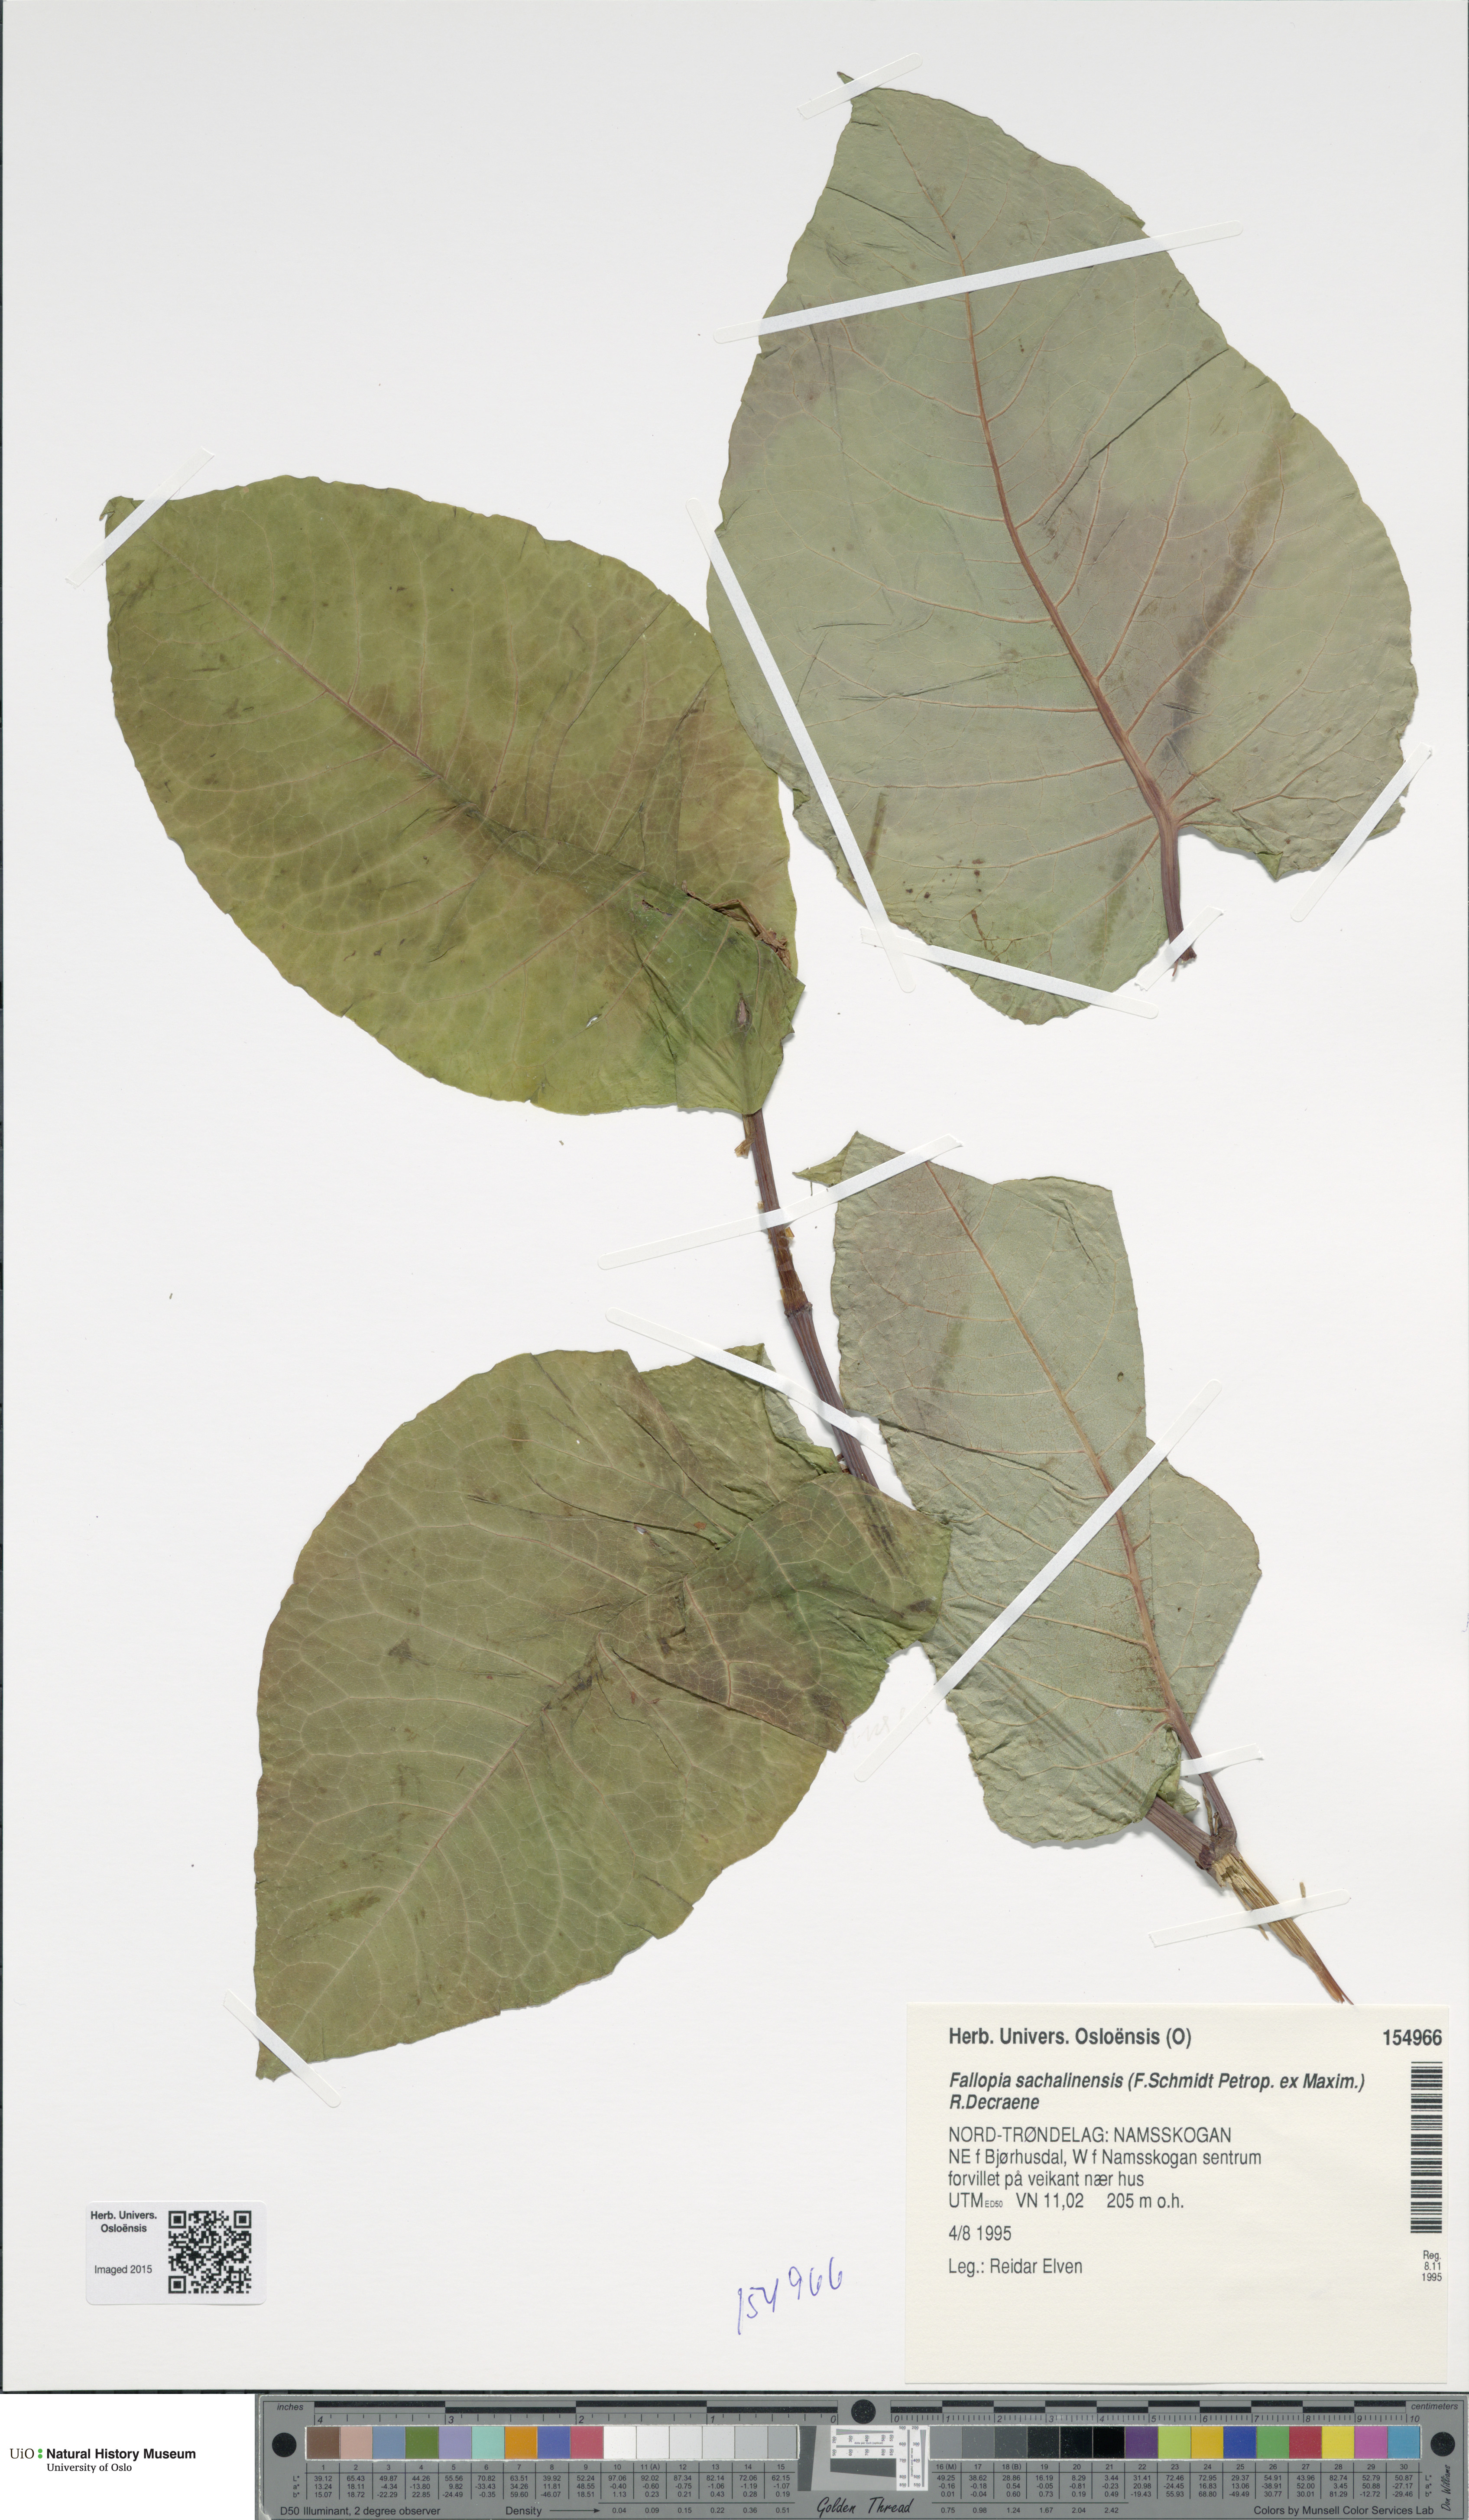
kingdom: Plantae
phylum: Tracheophyta
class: Magnoliopsida
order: Caryophyllales
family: Polygonaceae
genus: Reynoutria
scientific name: Reynoutria sachalinensis
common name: Giant knotweed
